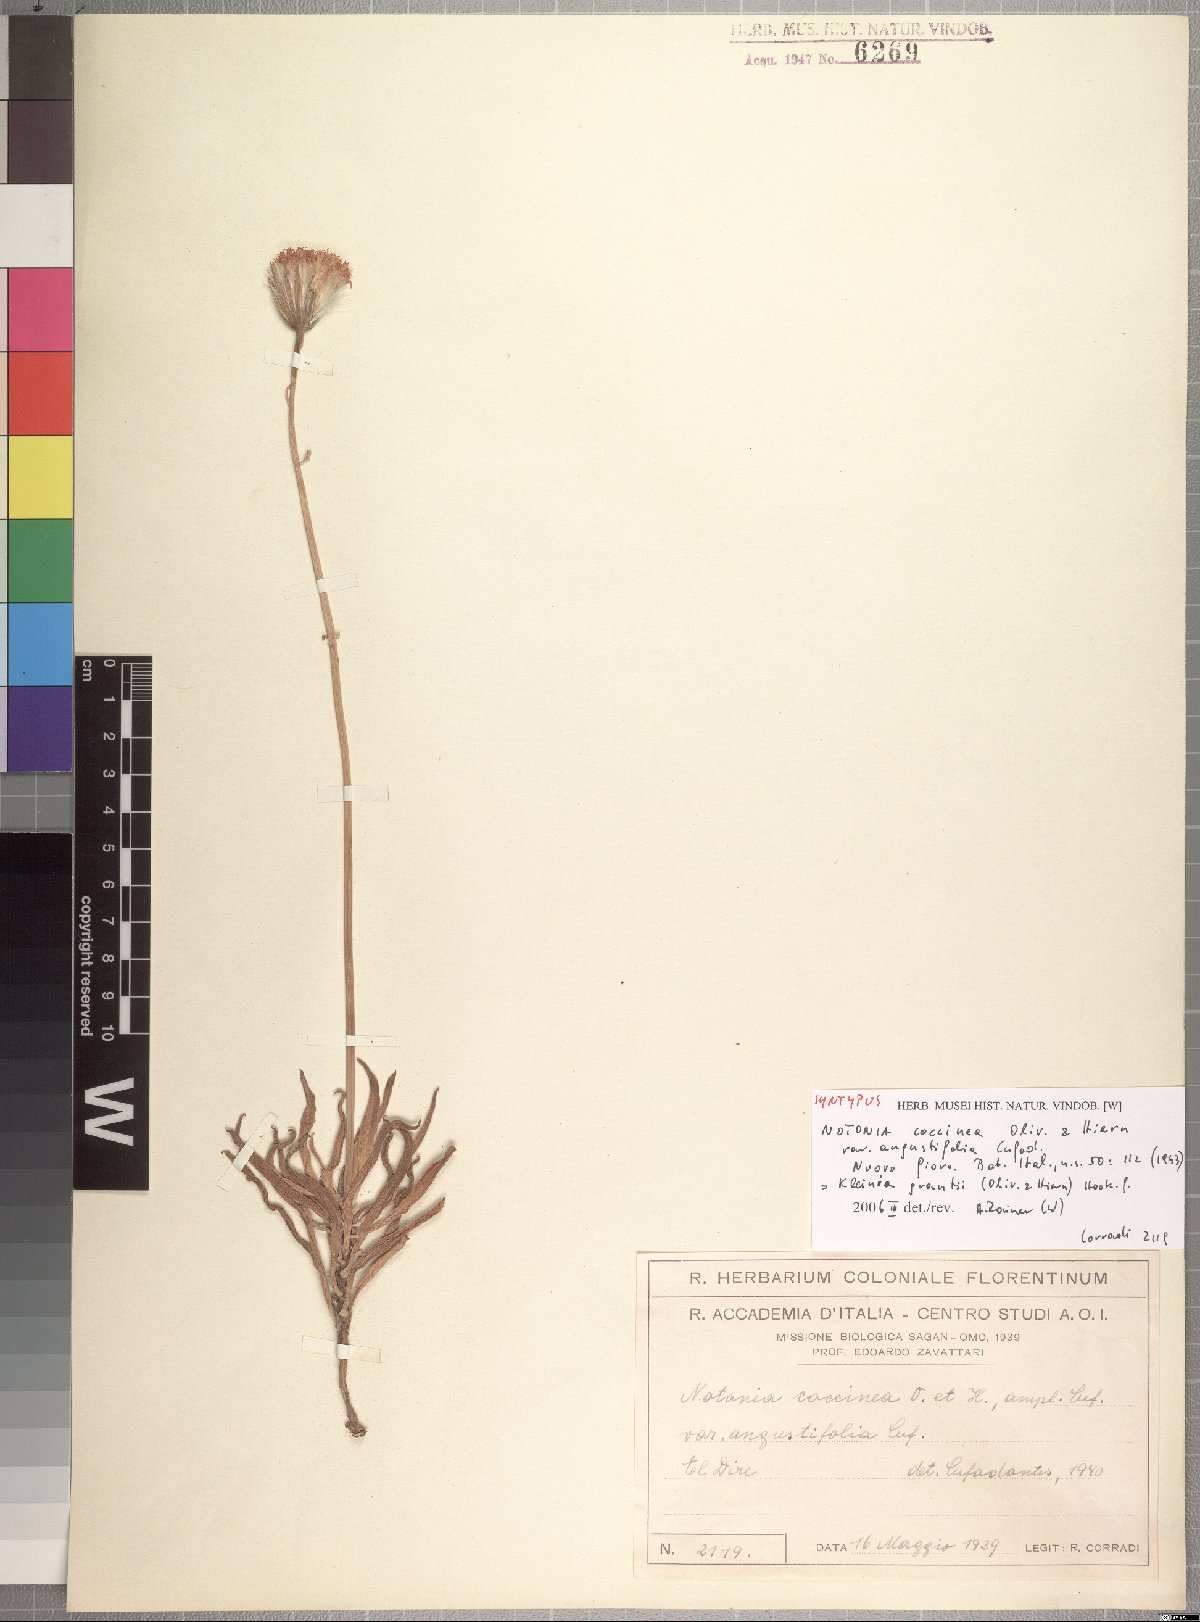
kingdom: Plantae
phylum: Tracheophyta
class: Magnoliopsida
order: Asterales
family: Asteraceae
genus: Kleinia
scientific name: Kleinia grantii
